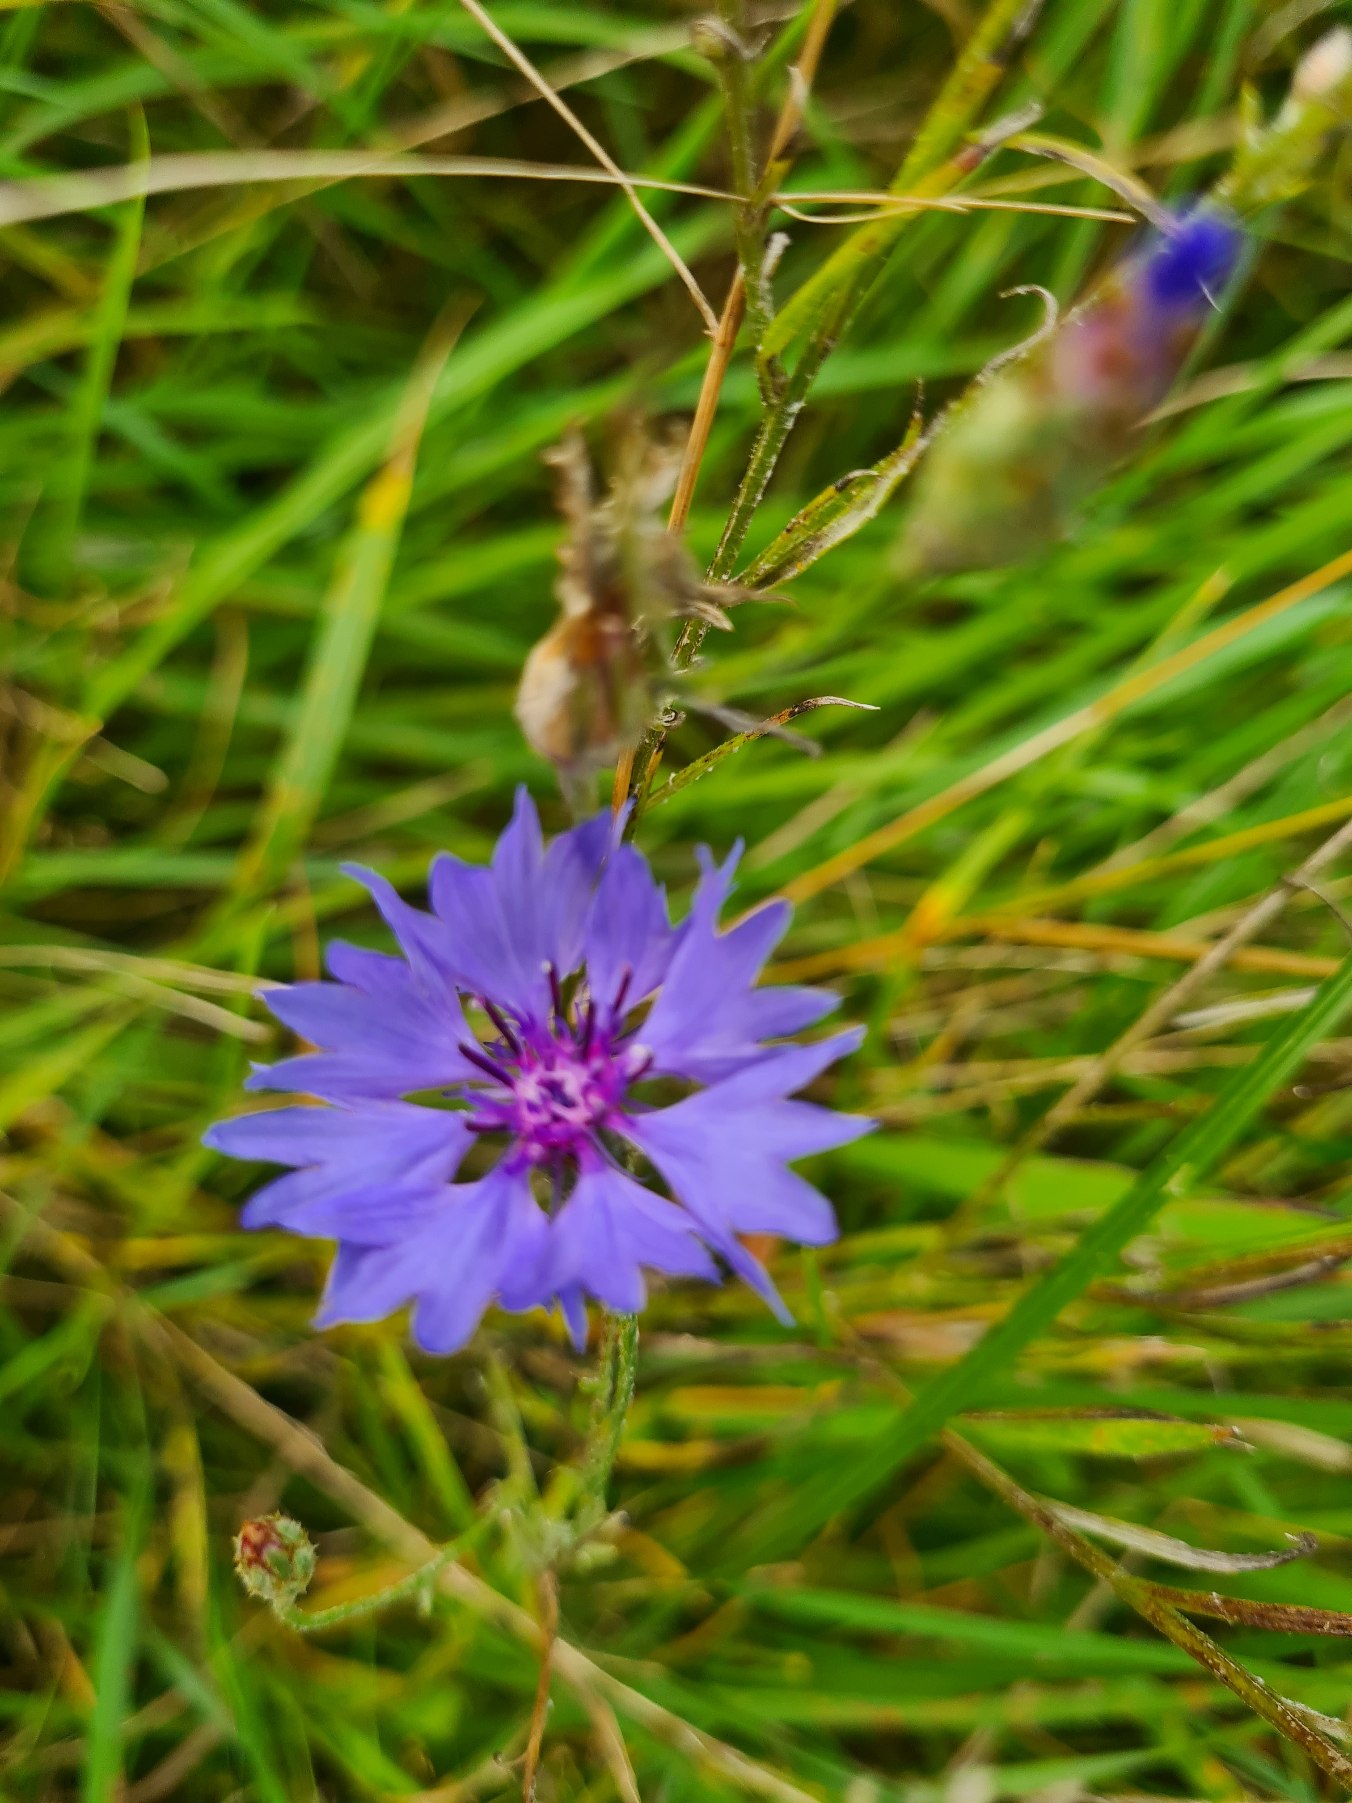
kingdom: Plantae
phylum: Tracheophyta
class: Magnoliopsida
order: Asterales
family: Asteraceae
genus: Centaurea
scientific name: Centaurea cyanus
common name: Kornblomst
